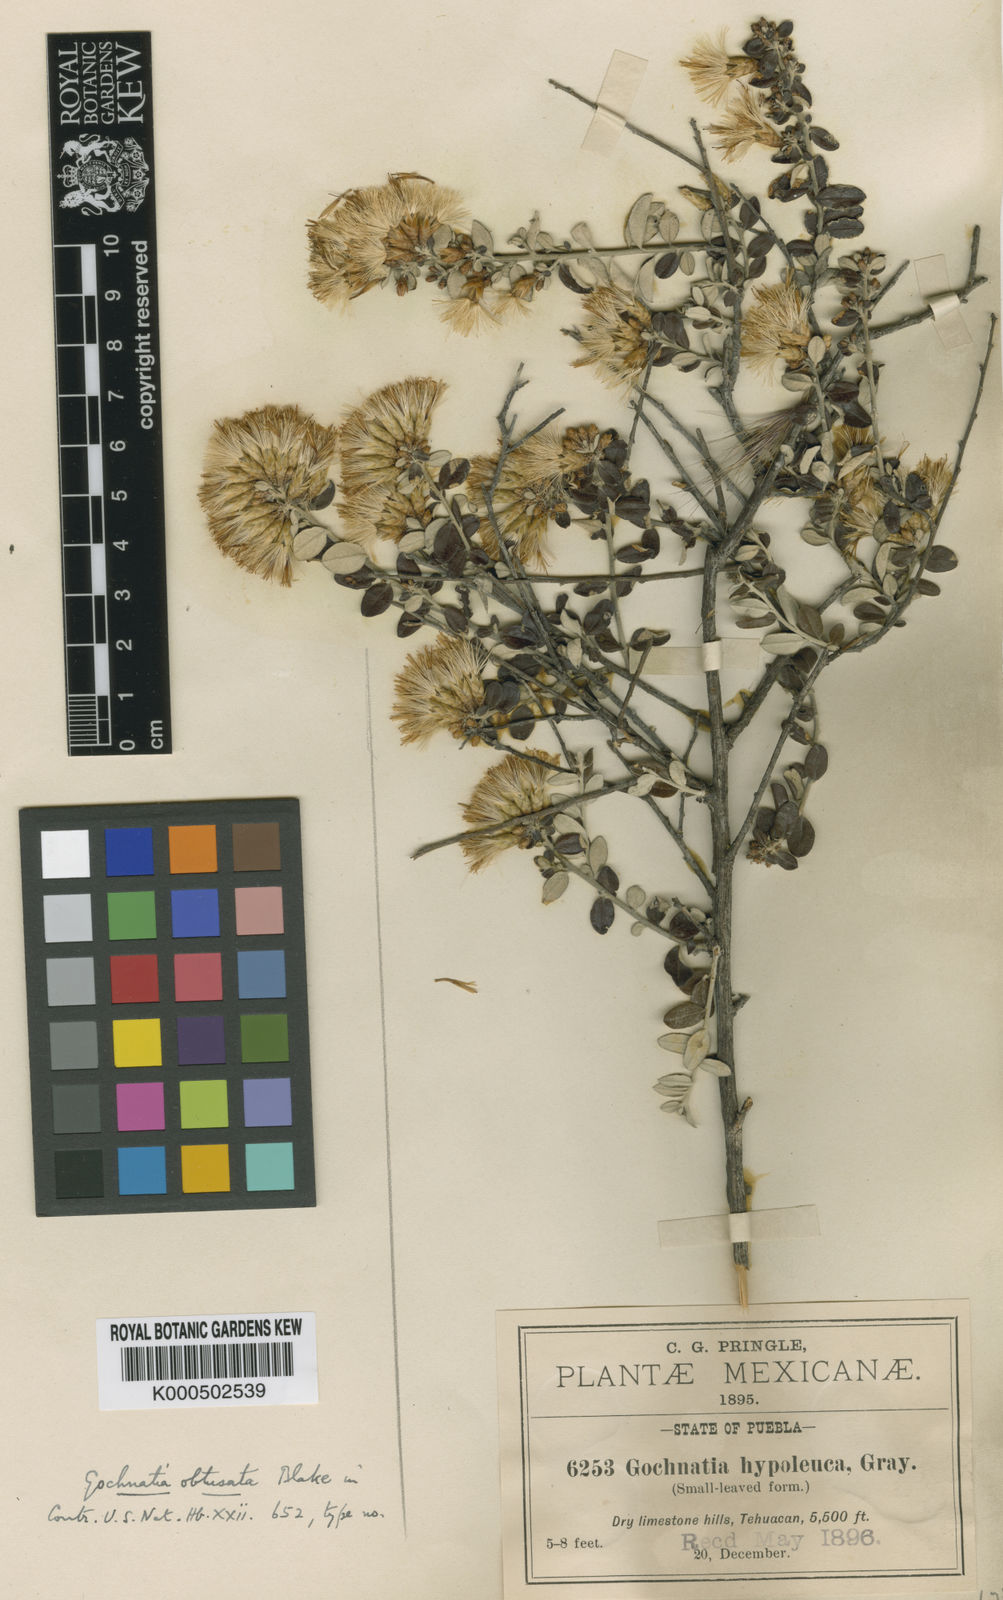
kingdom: Plantae
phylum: Tracheophyta
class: Magnoliopsida
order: Asterales
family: Asteraceae
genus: Nahuatlea
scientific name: Nahuatlea obtusata
